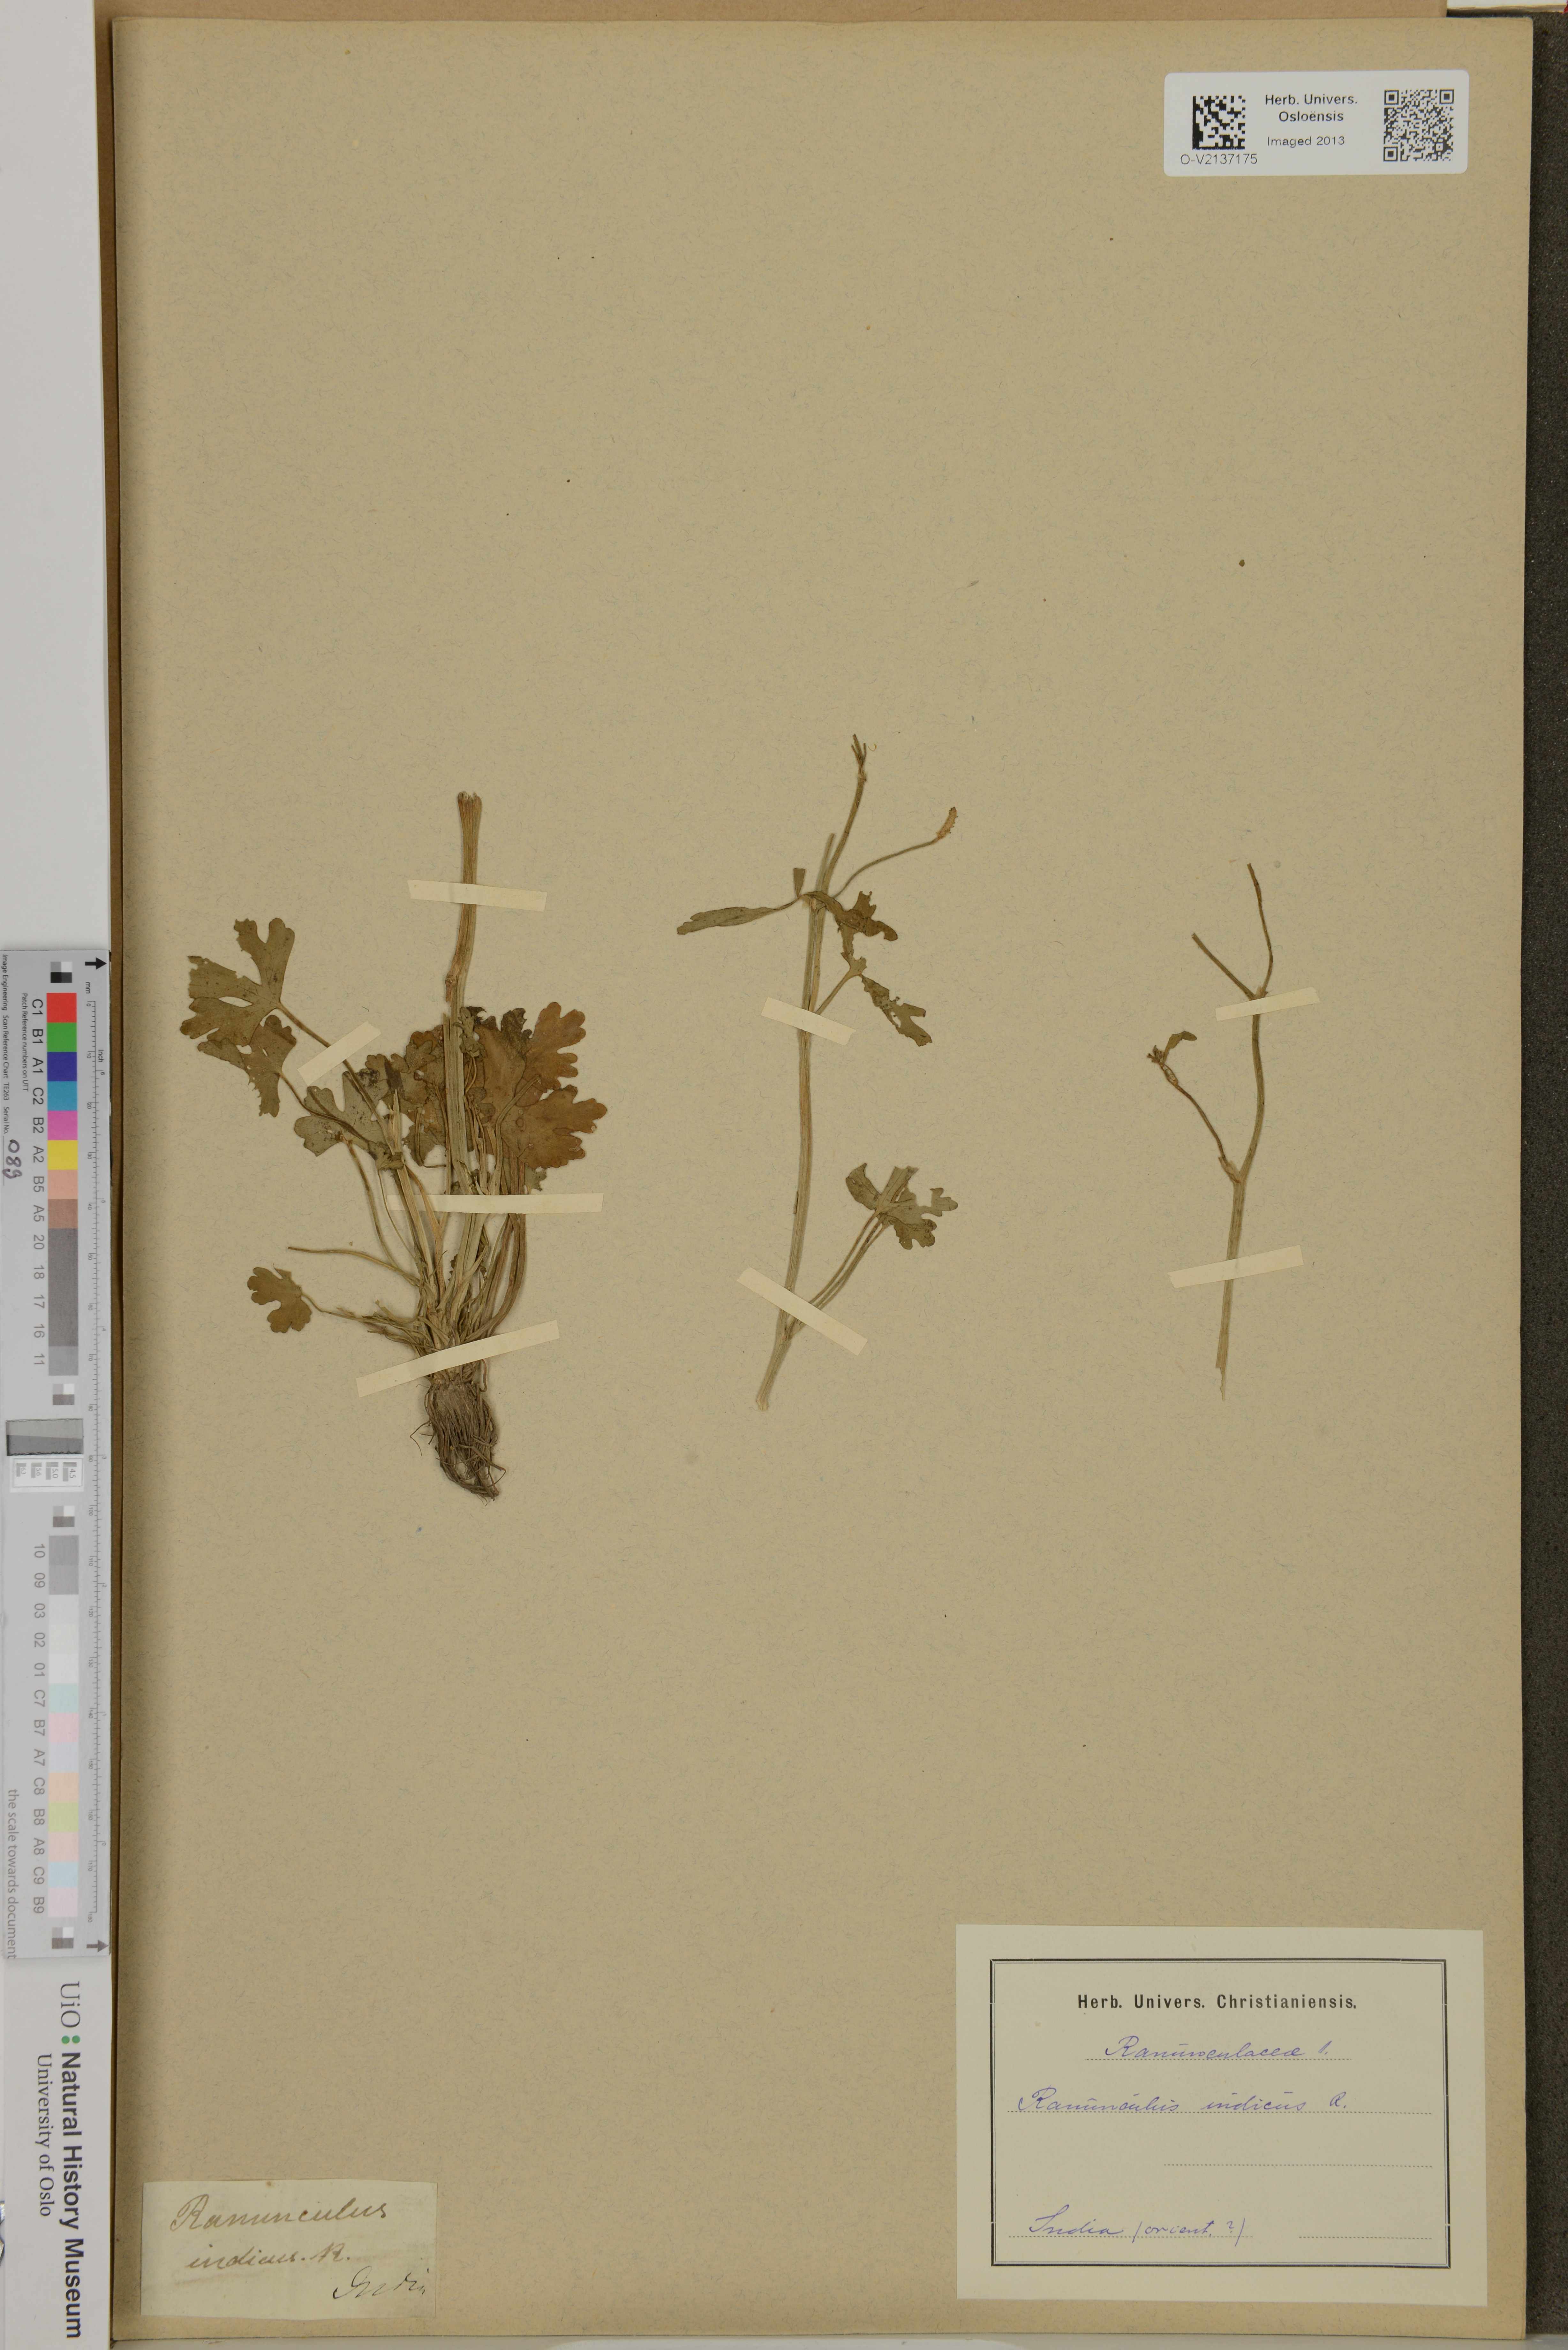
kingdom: Plantae
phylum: Tracheophyta
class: Magnoliopsida
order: Ranunculales
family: Ranunculaceae
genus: Ranunculus
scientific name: Ranunculus sceleratus
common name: Celery-leaved buttercup
